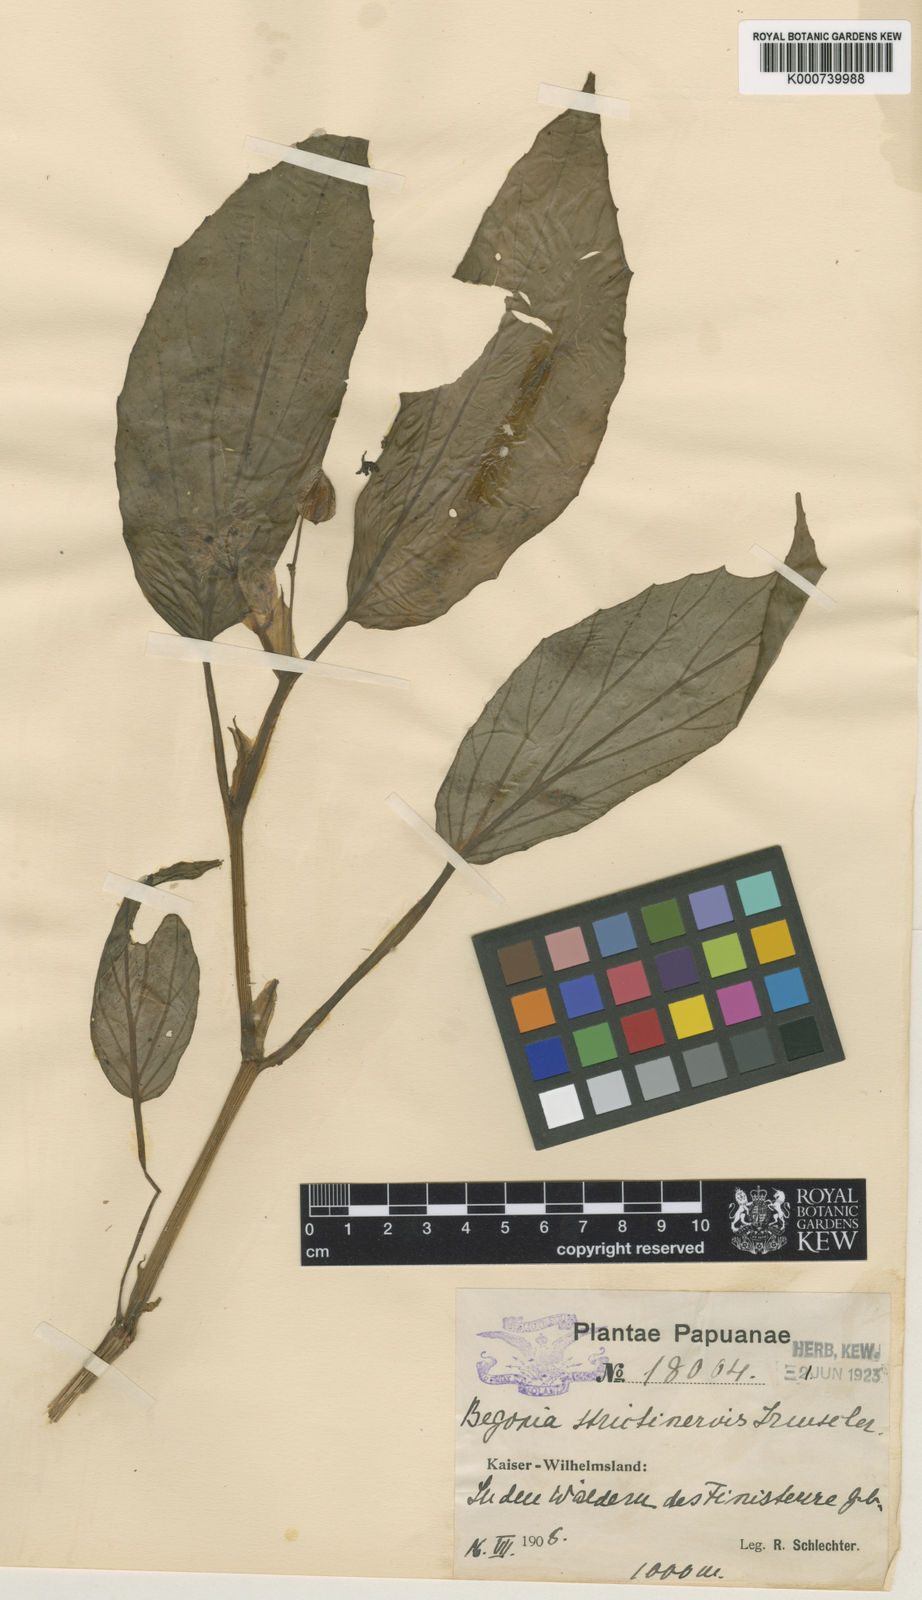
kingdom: Plantae
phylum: Tracheophyta
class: Magnoliopsida
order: Cucurbitales
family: Begoniaceae
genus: Begonia
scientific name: Begonia strictinervis
